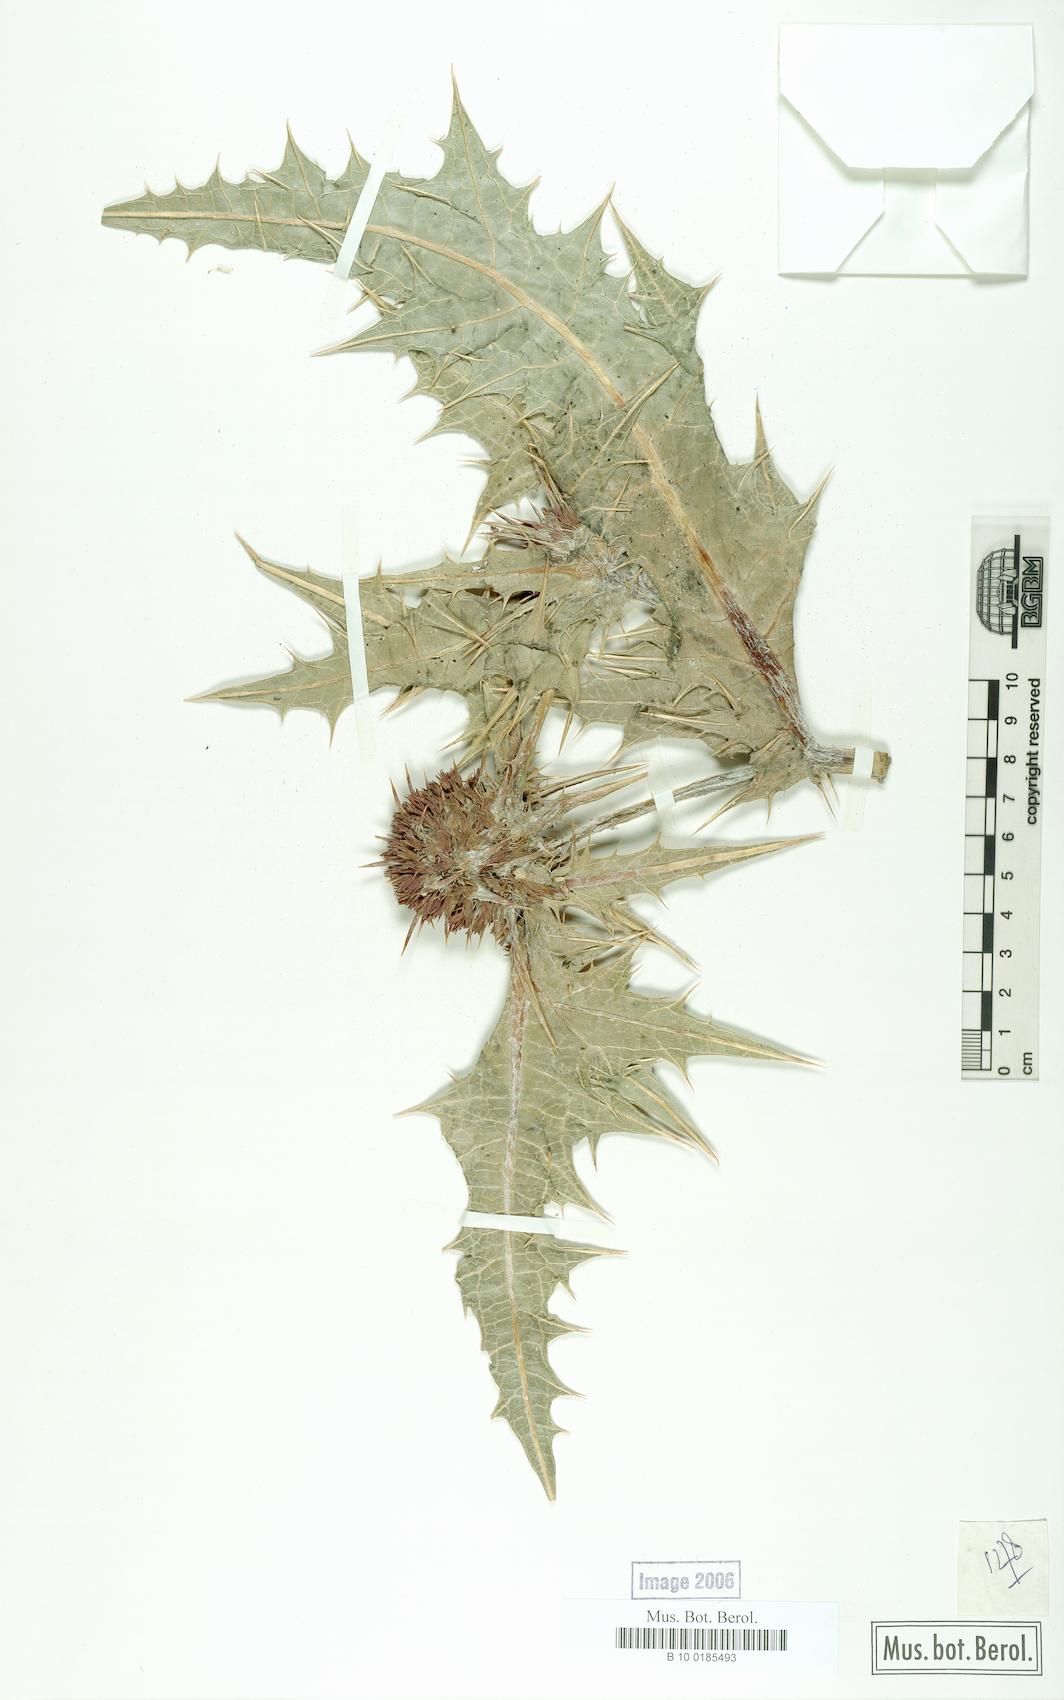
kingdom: Plantae
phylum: Tracheophyta
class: Magnoliopsida
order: Asterales
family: Asteraceae
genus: Gundelia
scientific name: Gundelia
